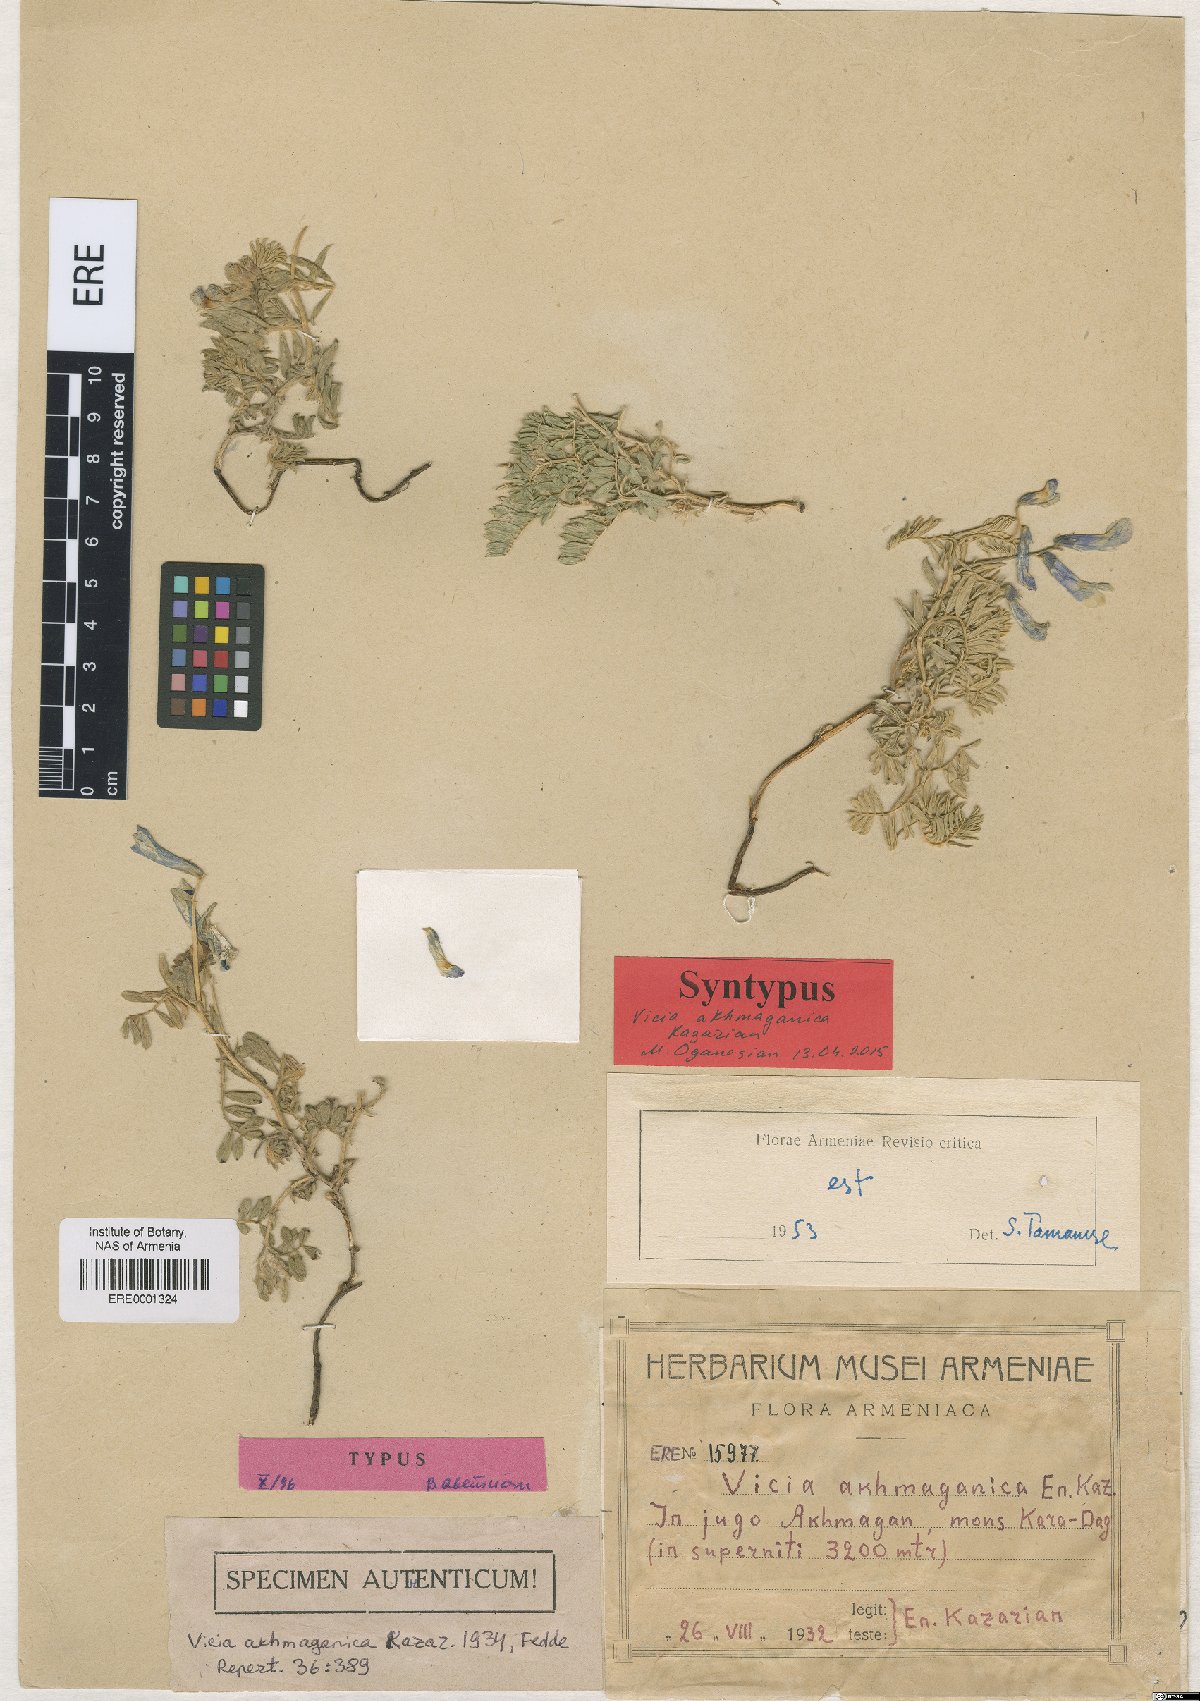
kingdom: Plantae
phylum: Tracheophyta
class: Magnoliopsida
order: Fabales
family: Fabaceae
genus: Vicia
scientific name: Vicia canescens
